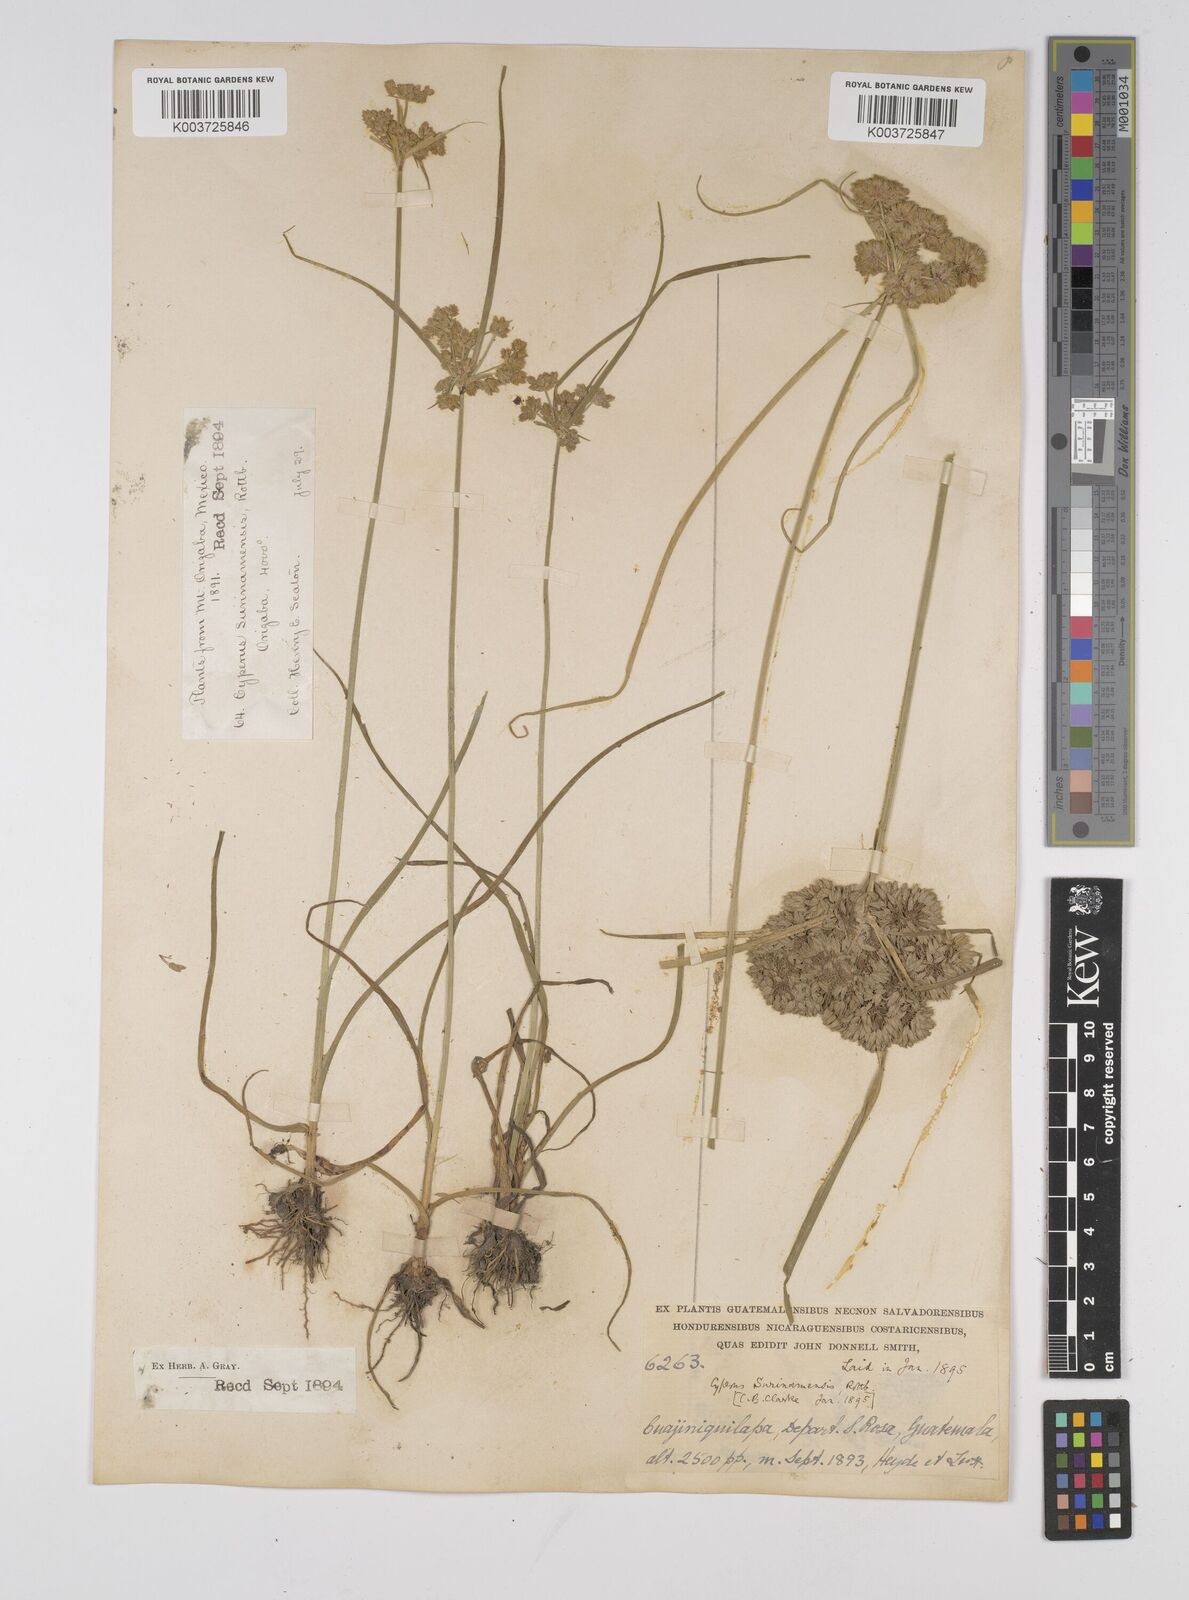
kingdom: Plantae
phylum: Tracheophyta
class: Liliopsida
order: Poales
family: Cyperaceae
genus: Cyperus
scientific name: Cyperus surinamensis
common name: Tropical flat sedge
